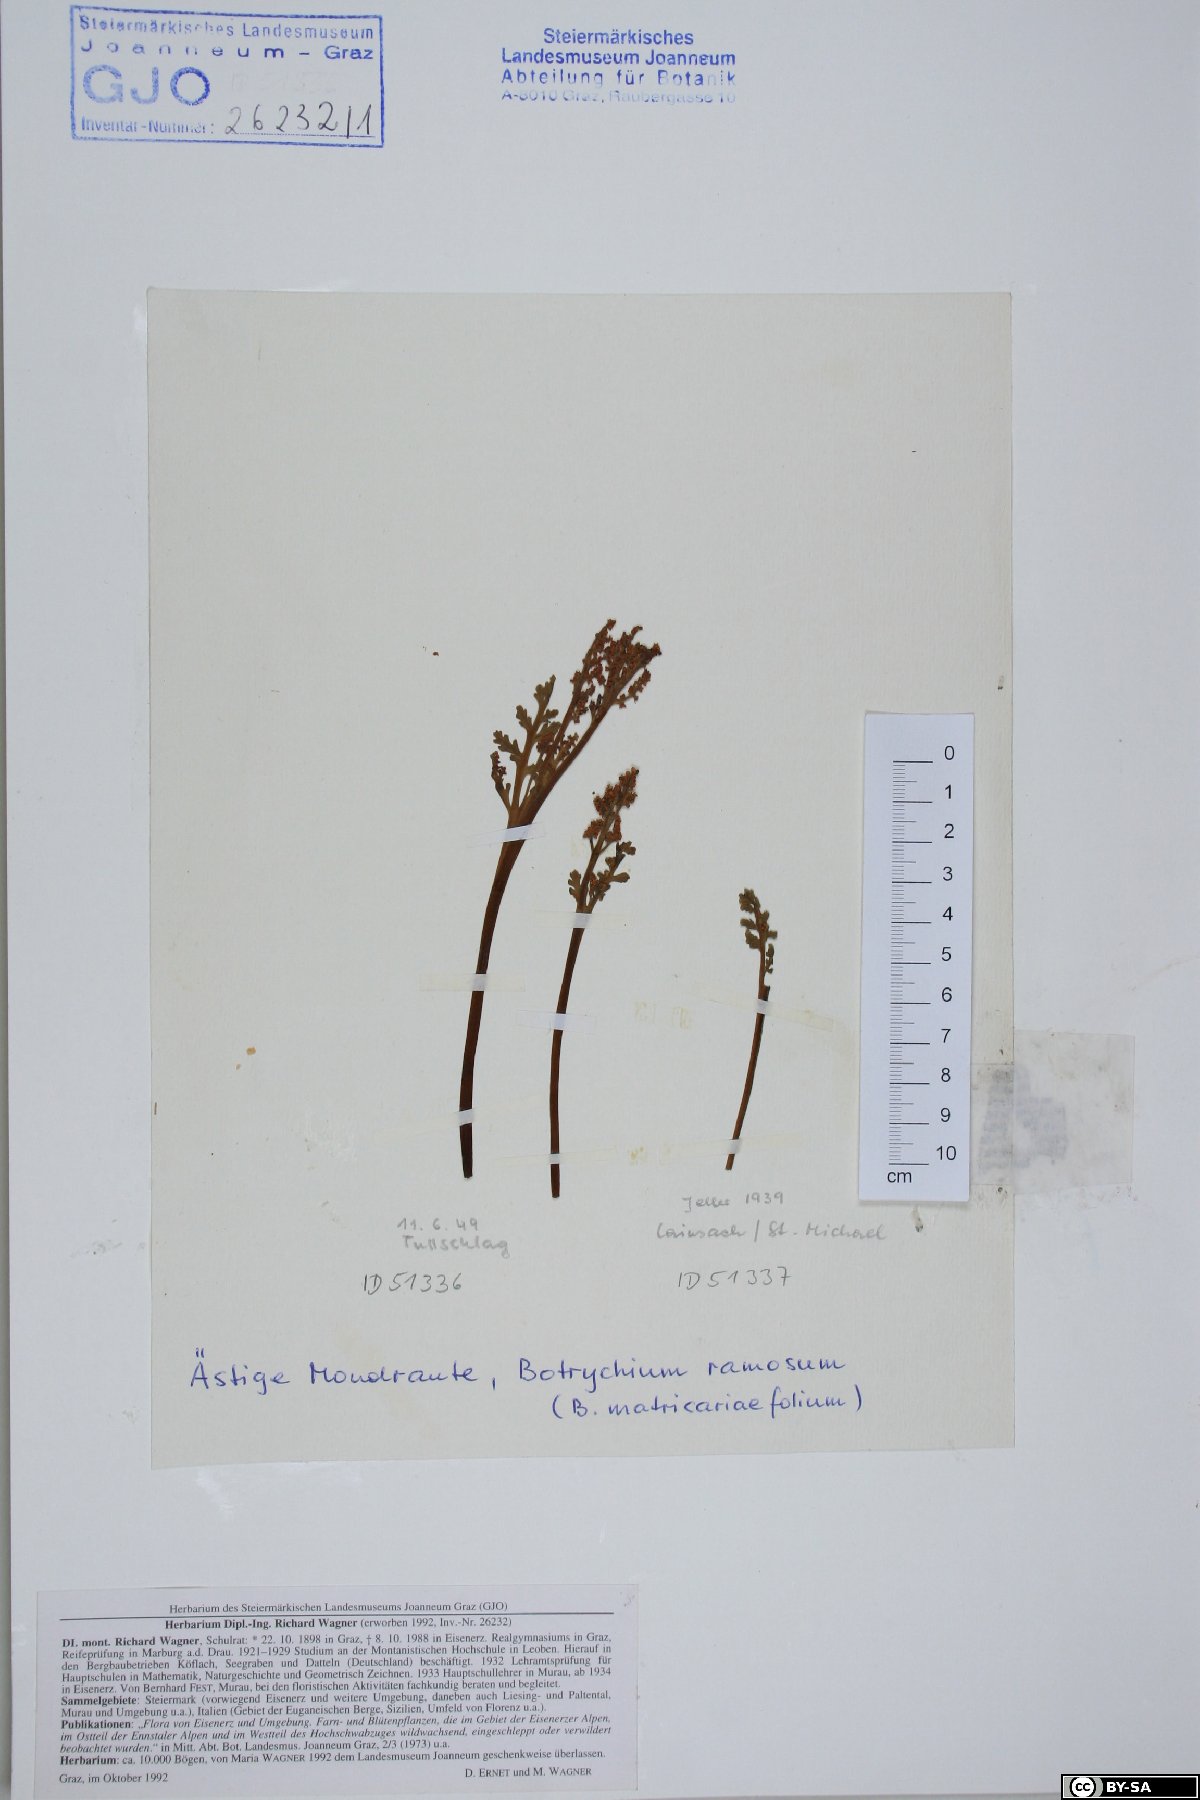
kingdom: Plantae
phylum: Tracheophyta
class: Polypodiopsida
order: Ophioglossales
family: Ophioglossaceae
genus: Botrychium
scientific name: Botrychium matricariifolium
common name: Branched moonwort
